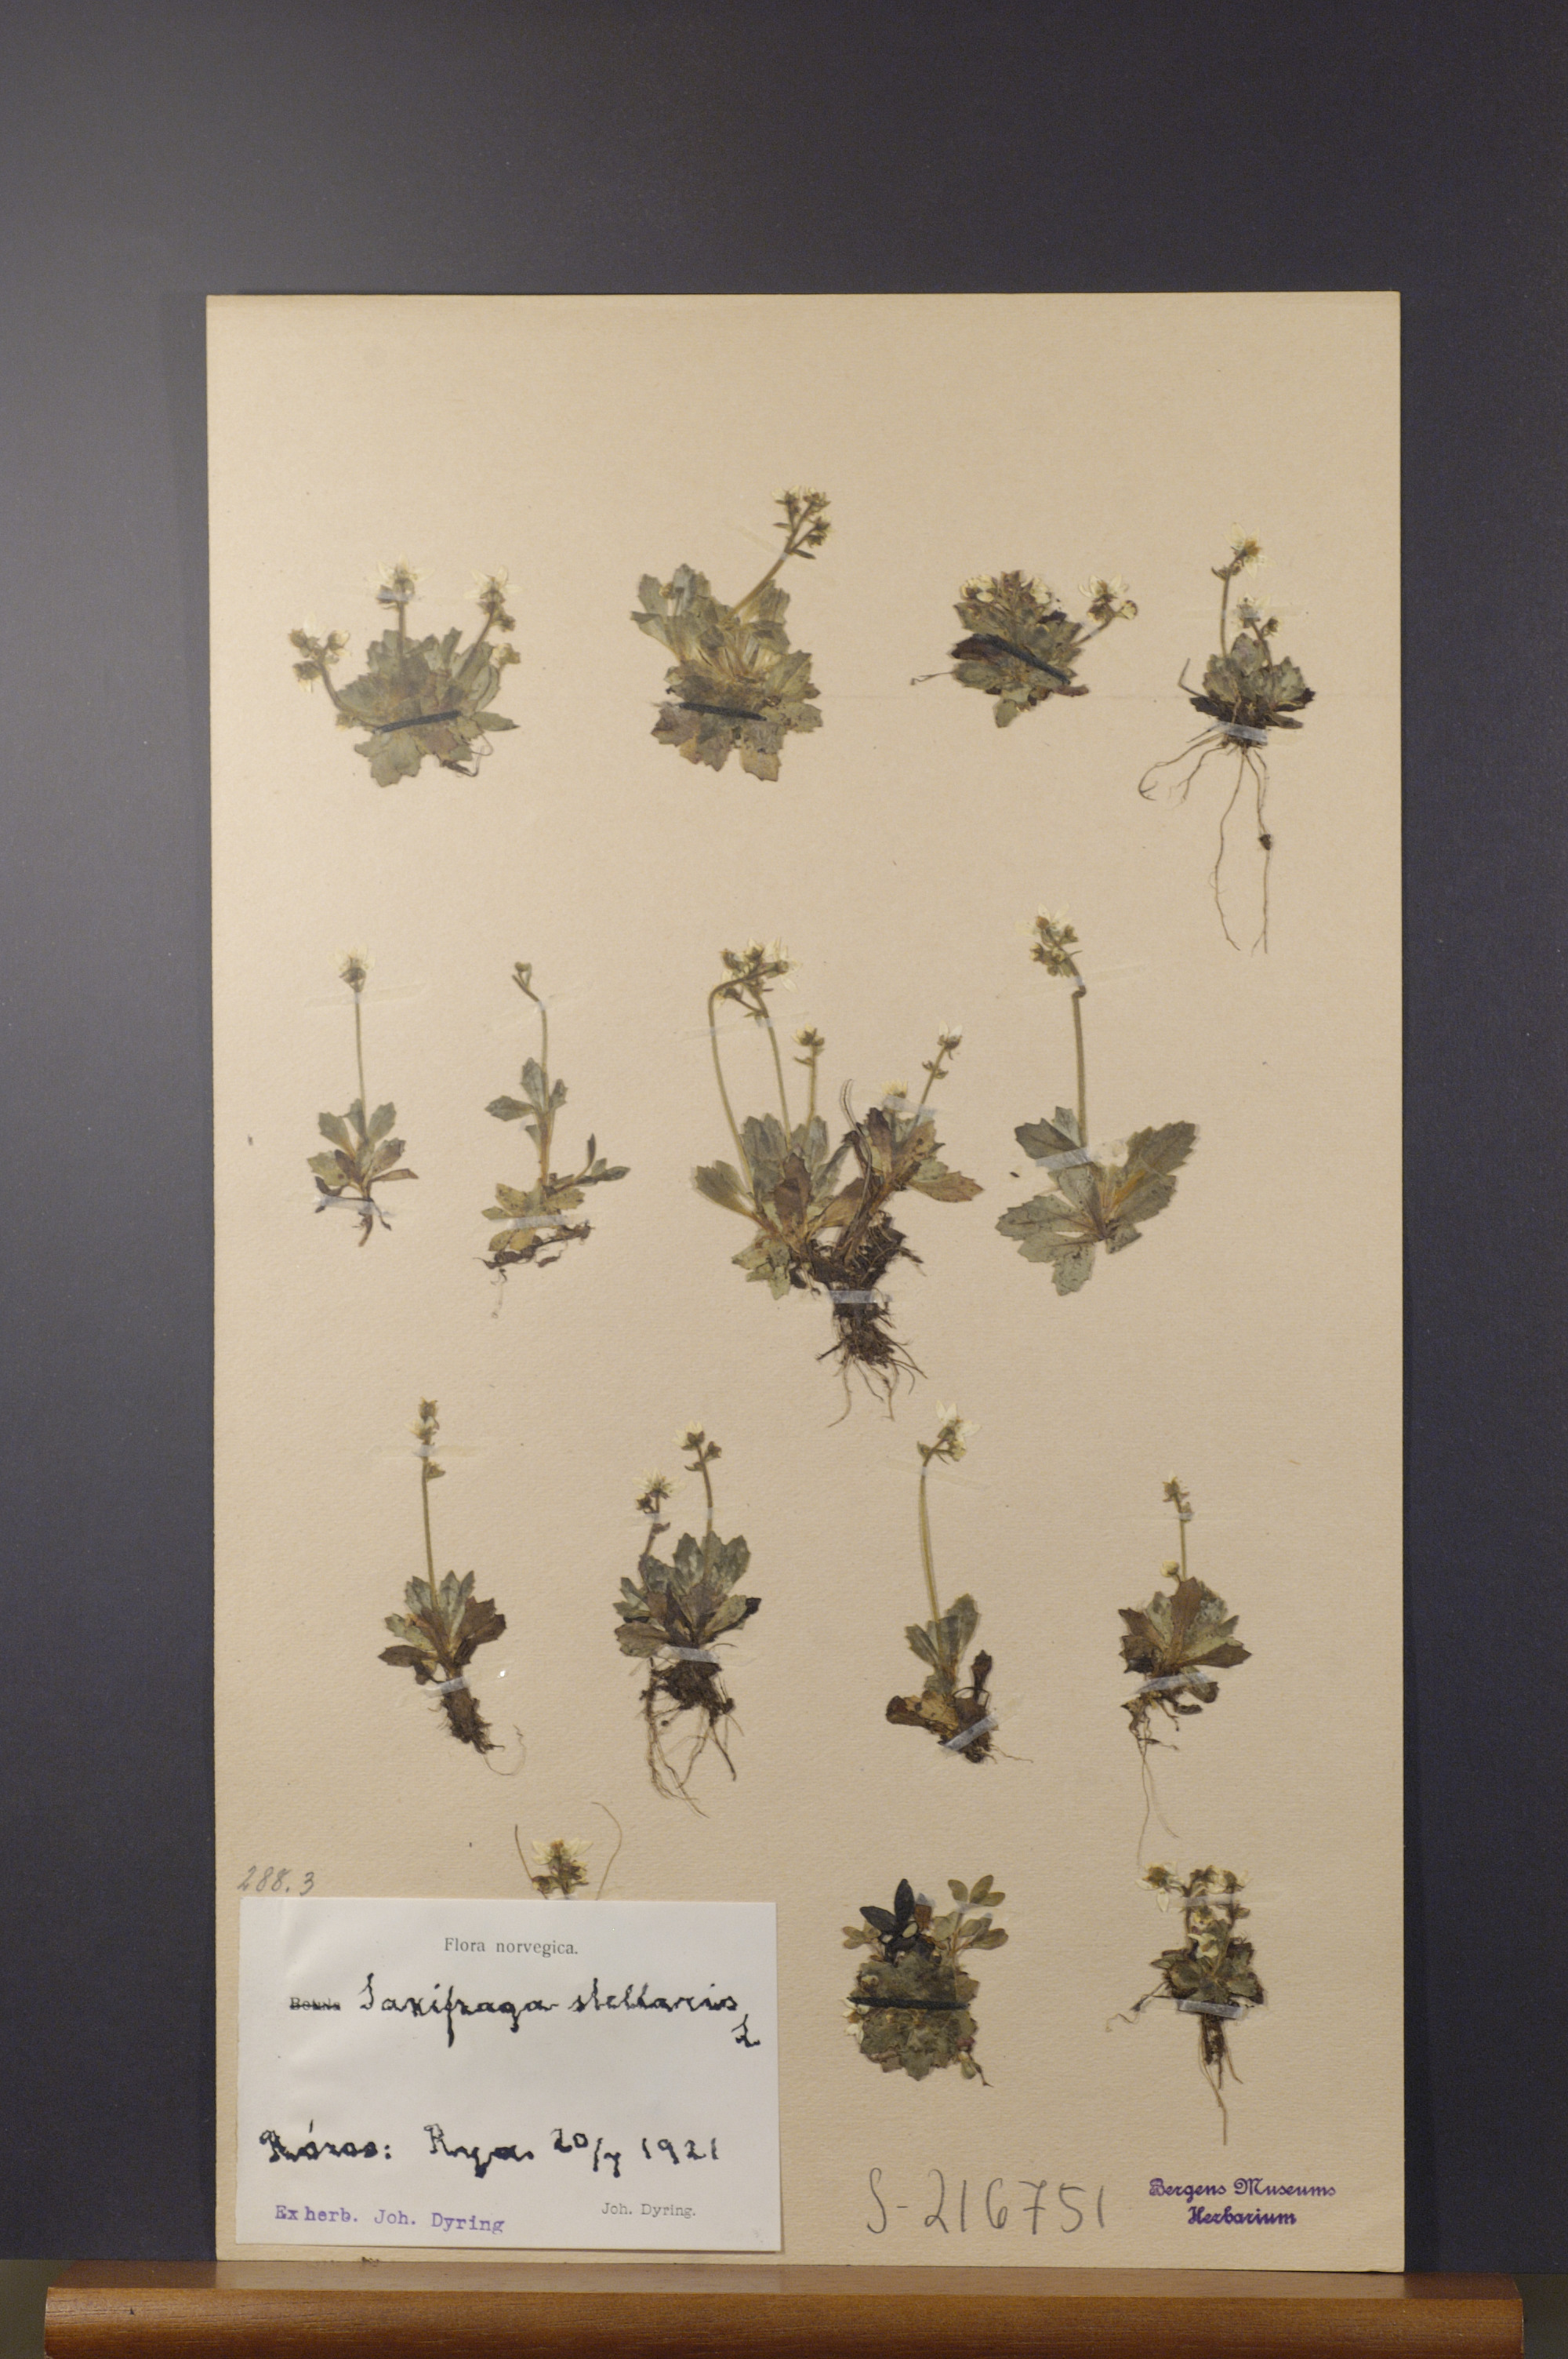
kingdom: Plantae
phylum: Tracheophyta
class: Magnoliopsida
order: Saxifragales
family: Saxifragaceae
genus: Micranthes
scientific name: Micranthes stellaris
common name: Starry saxifrage
